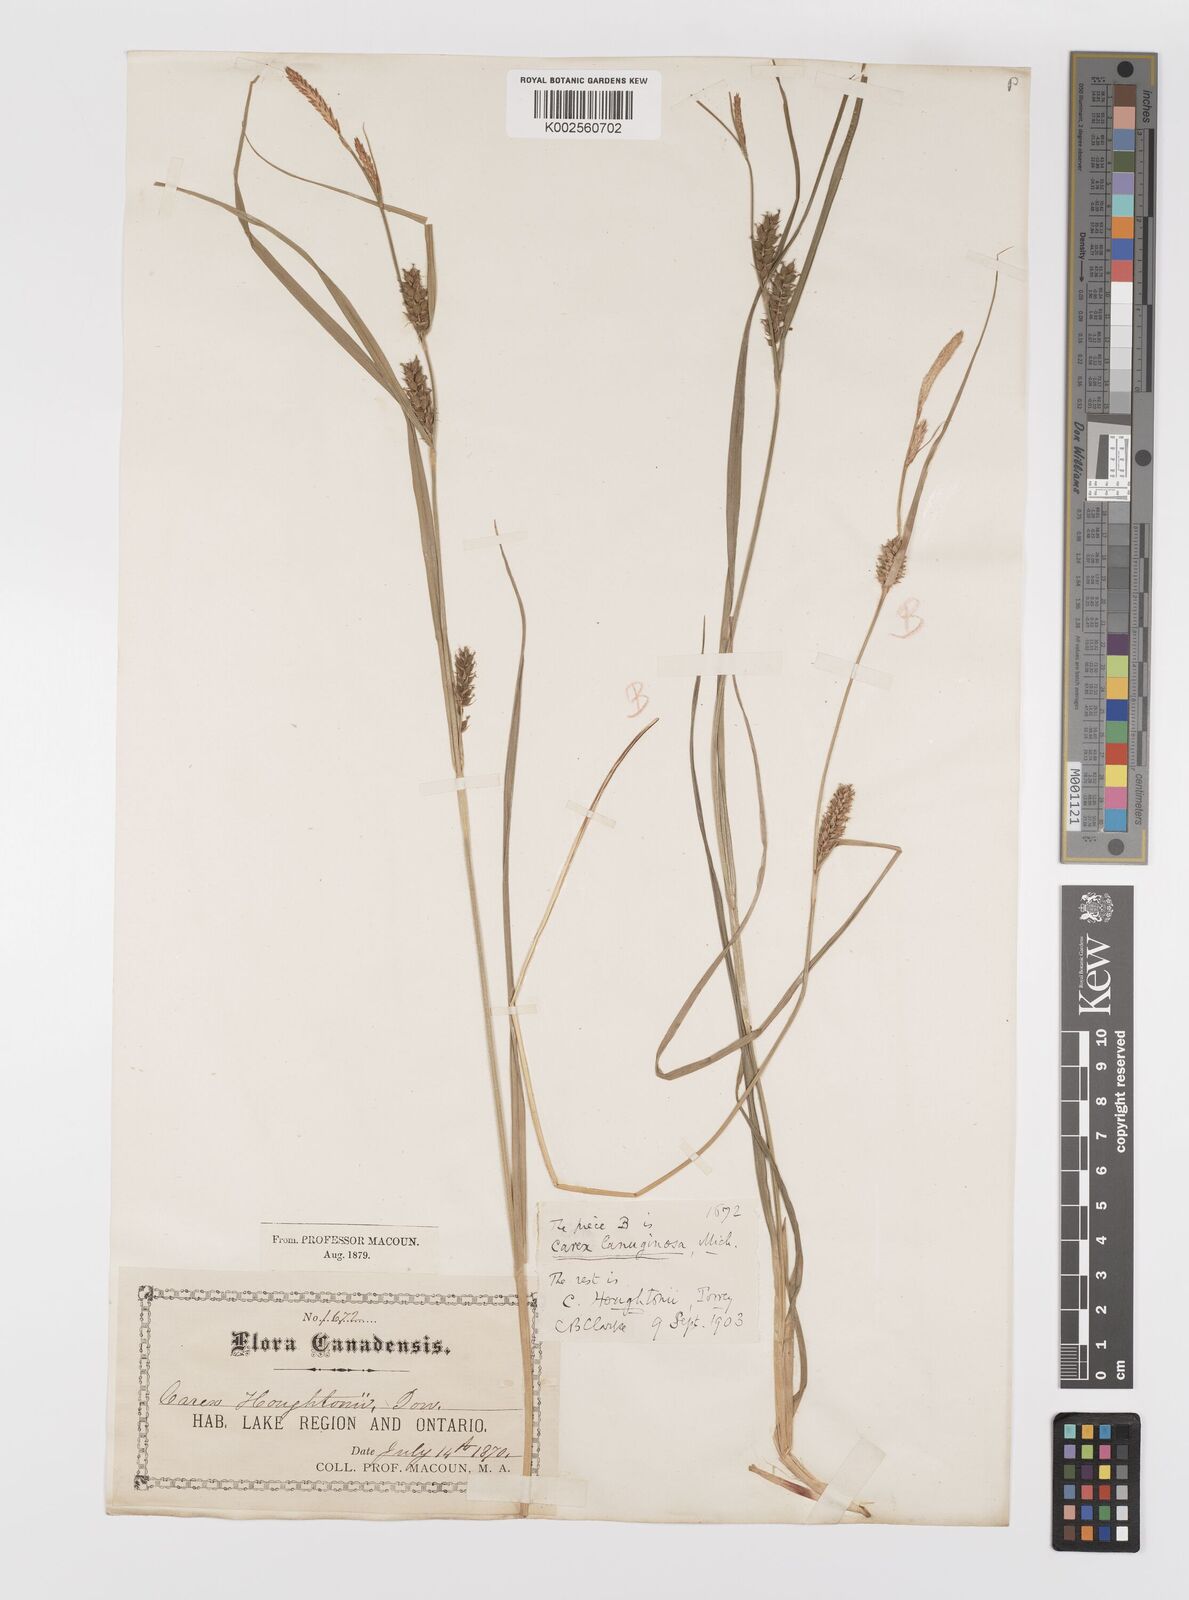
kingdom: Plantae
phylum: Tracheophyta
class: Liliopsida
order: Poales
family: Cyperaceae
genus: Carex
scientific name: Carex houghtoniana
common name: Houghton's sedge
